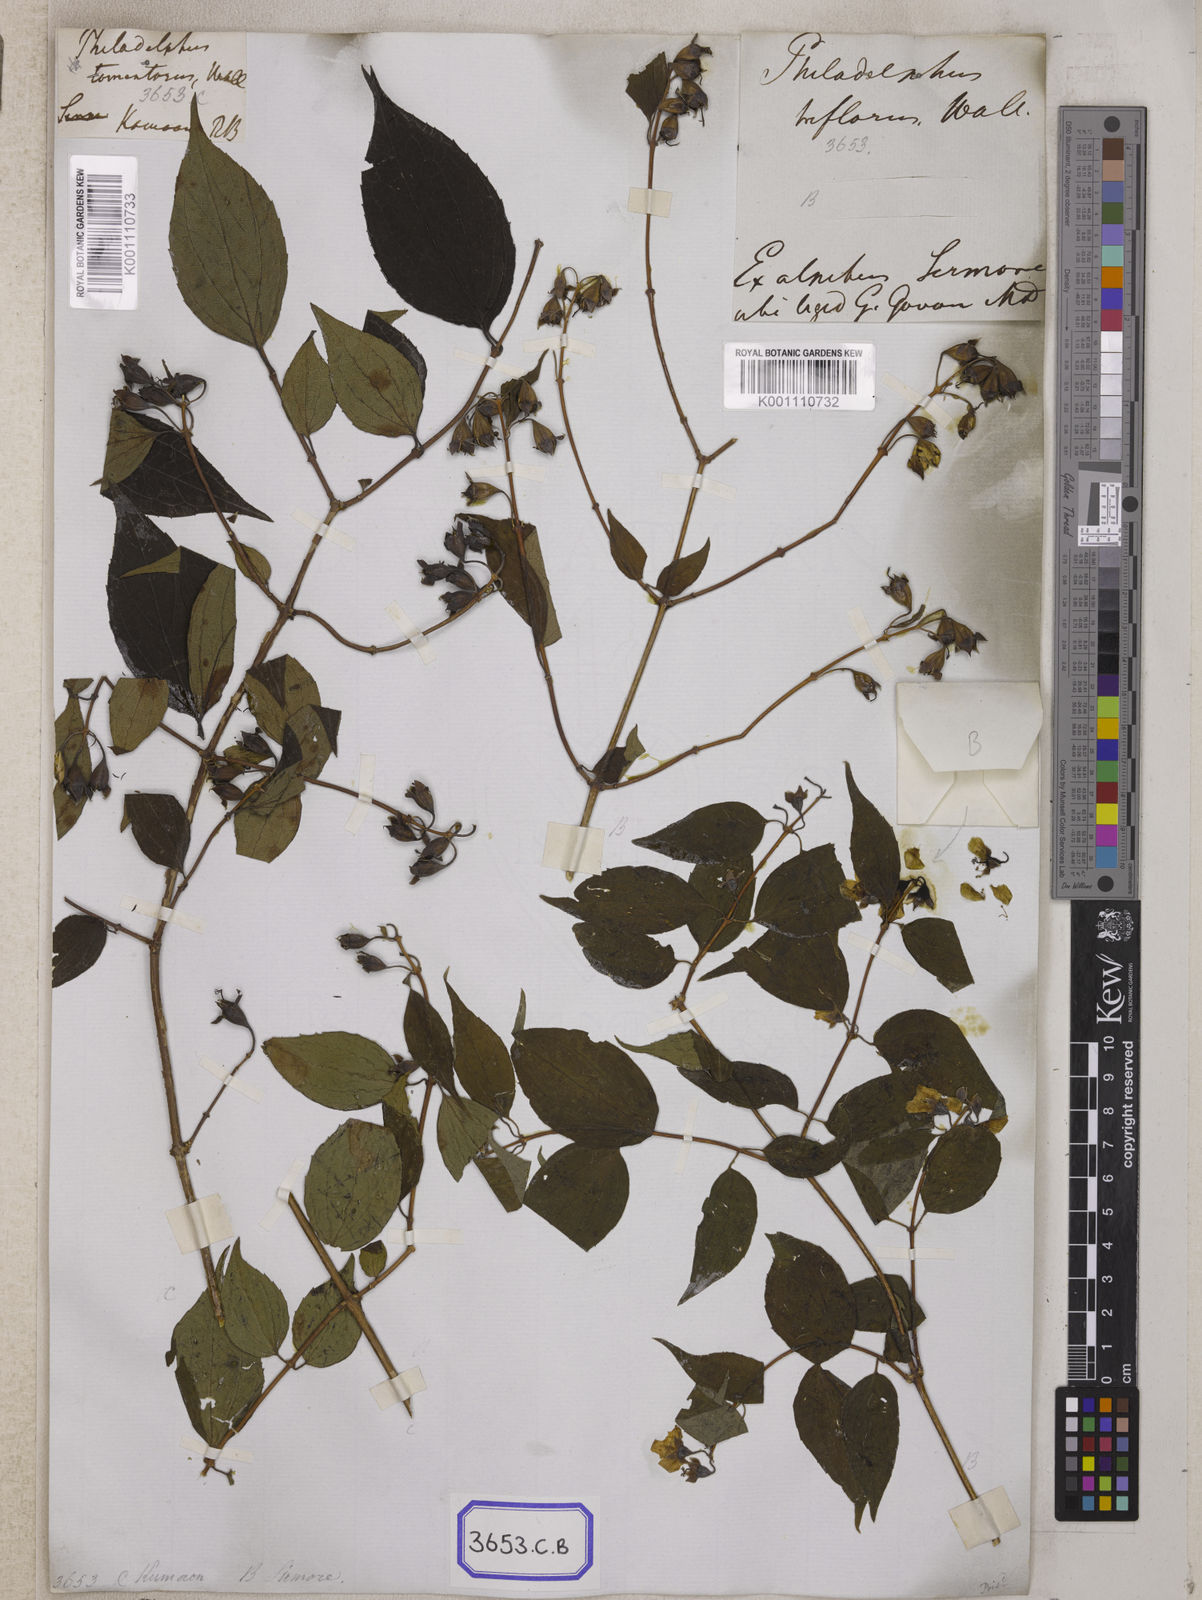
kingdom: Plantae
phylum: Tracheophyta
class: Magnoliopsida
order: Cornales
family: Hydrangeaceae
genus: Philadelphus
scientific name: Philadelphus
